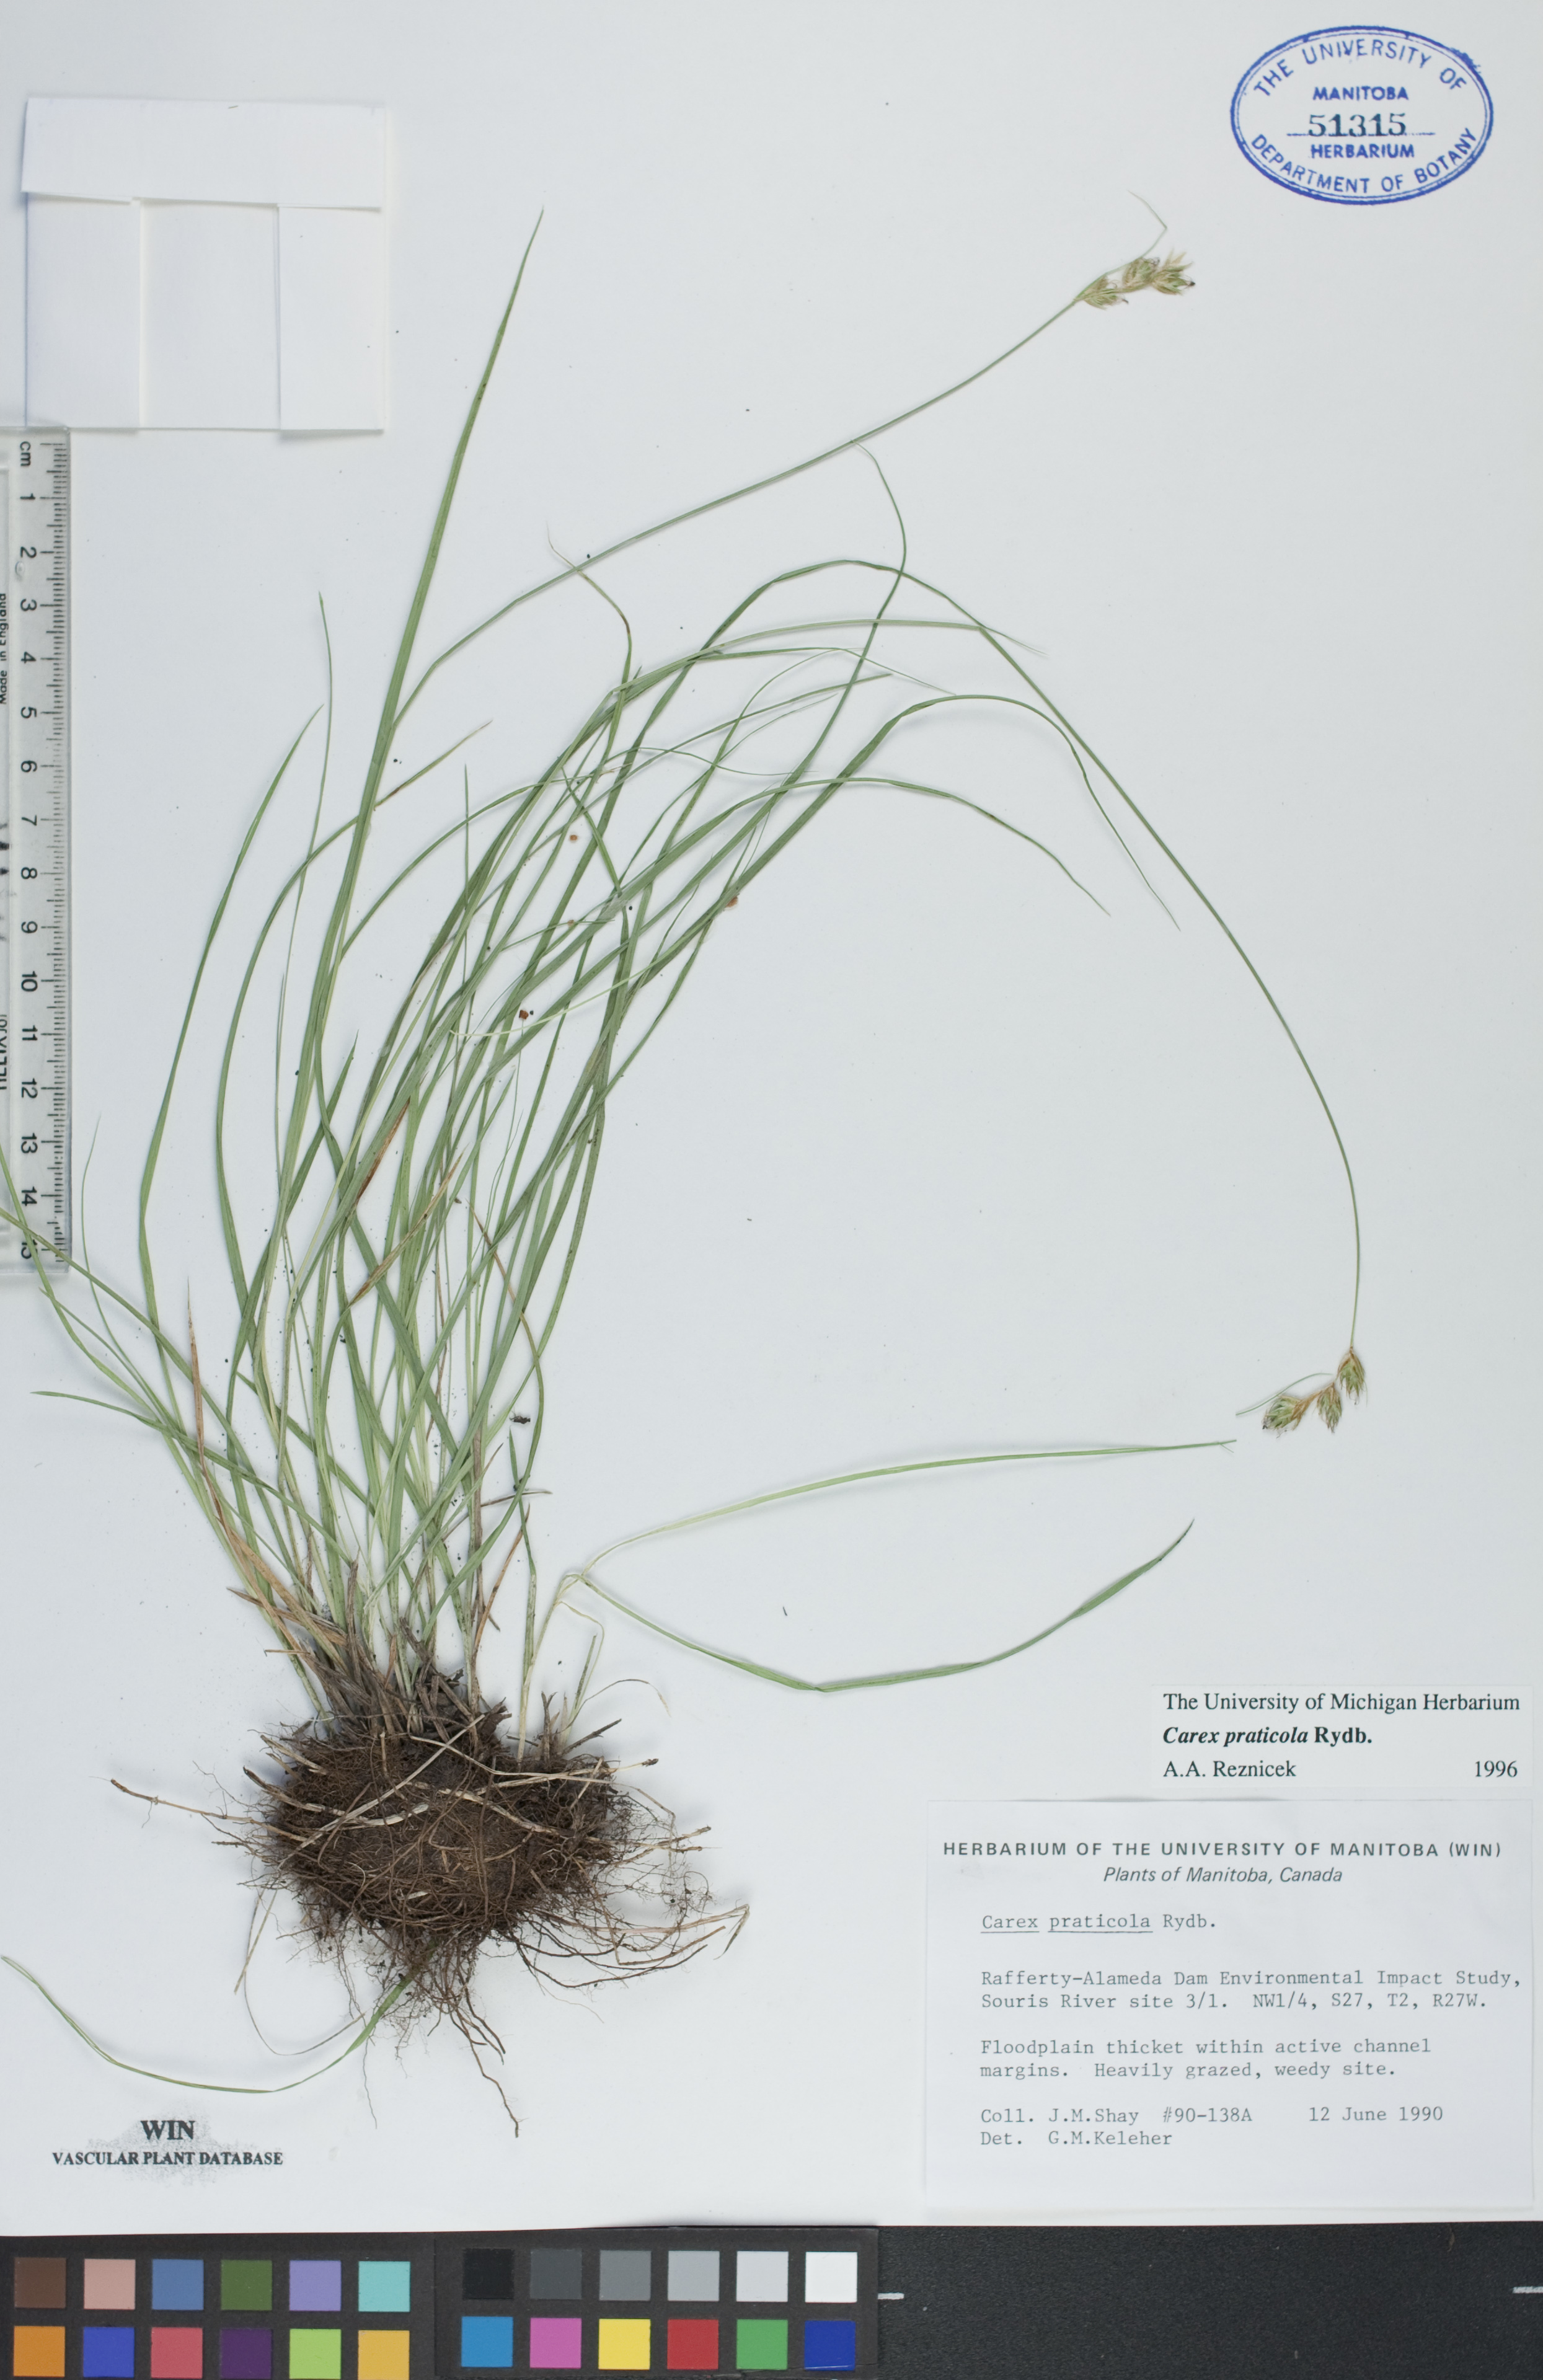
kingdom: Plantae
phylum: Tracheophyta
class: Liliopsida
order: Poales
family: Cyperaceae
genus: Carex
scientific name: Carex praticola
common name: Large-fruited oval sedge
